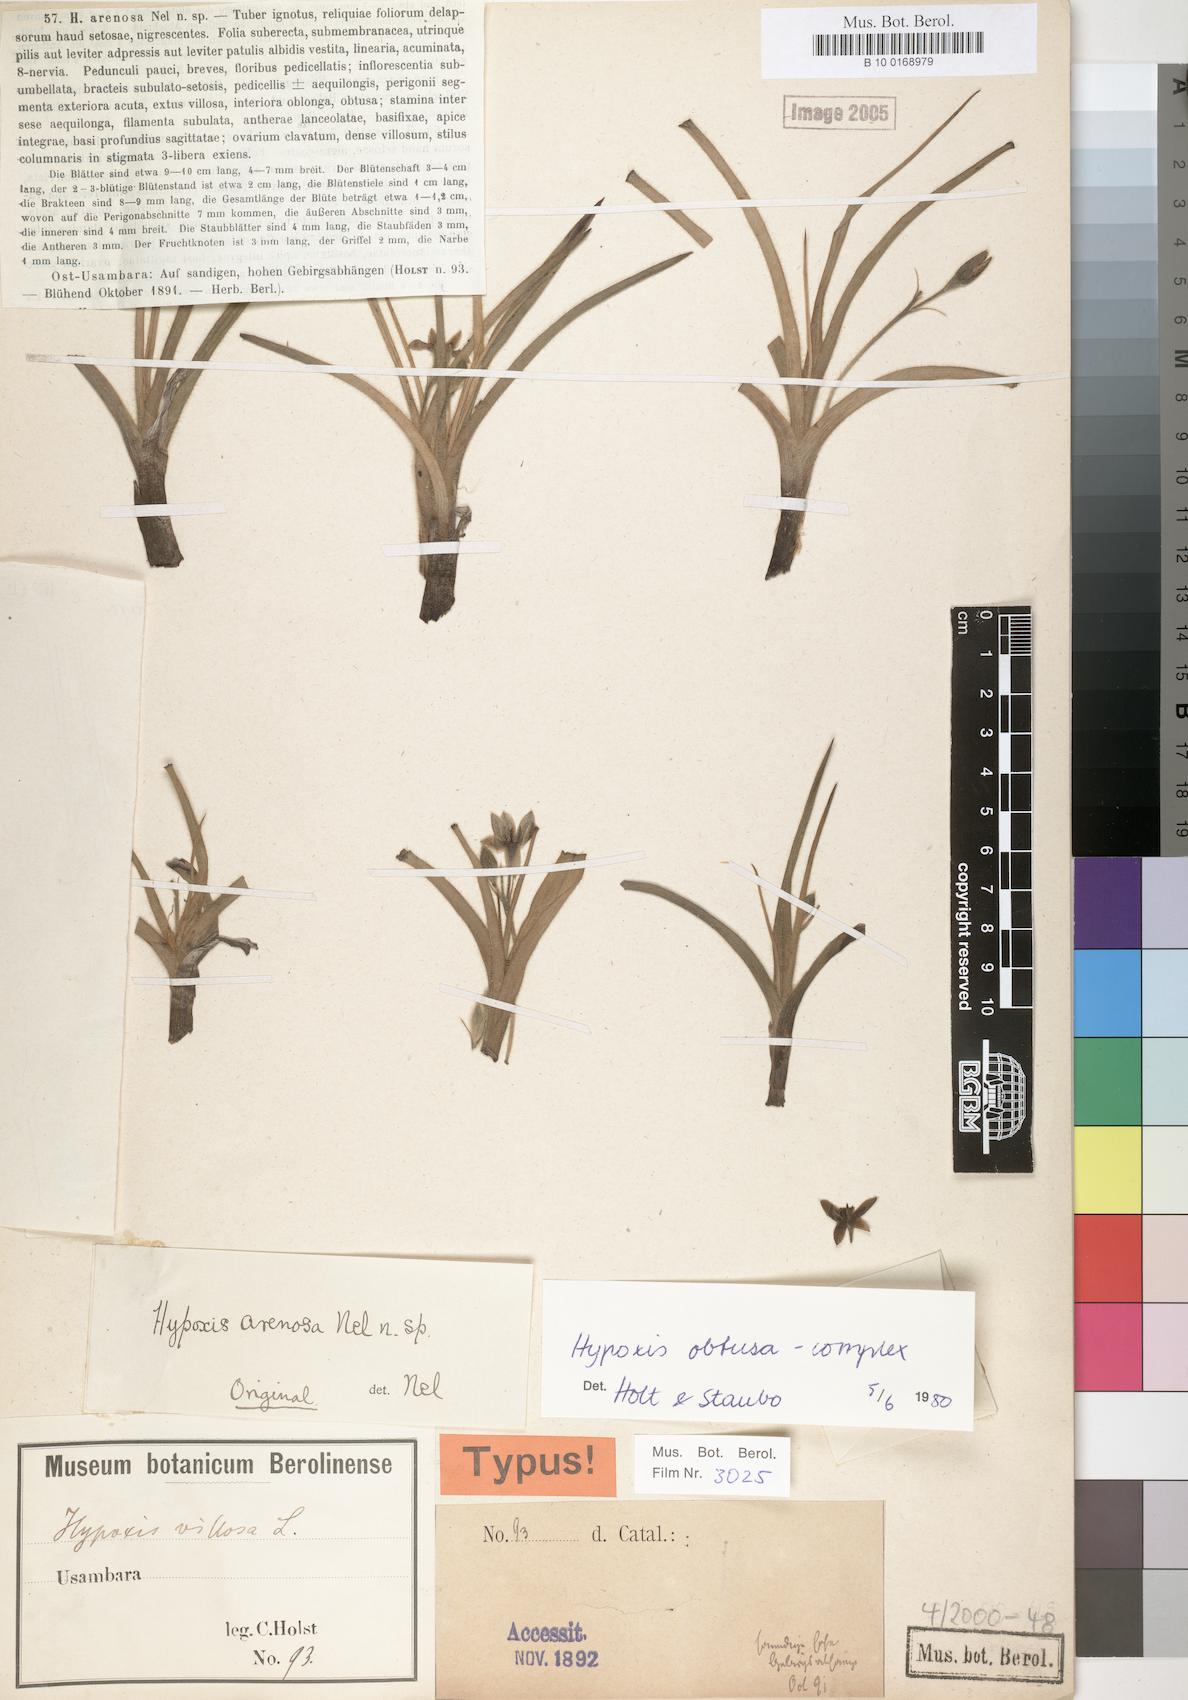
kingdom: Plantae
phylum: Tracheophyta
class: Liliopsida
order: Asparagales
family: Hypoxidaceae
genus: Hypoxis
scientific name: Hypoxis
